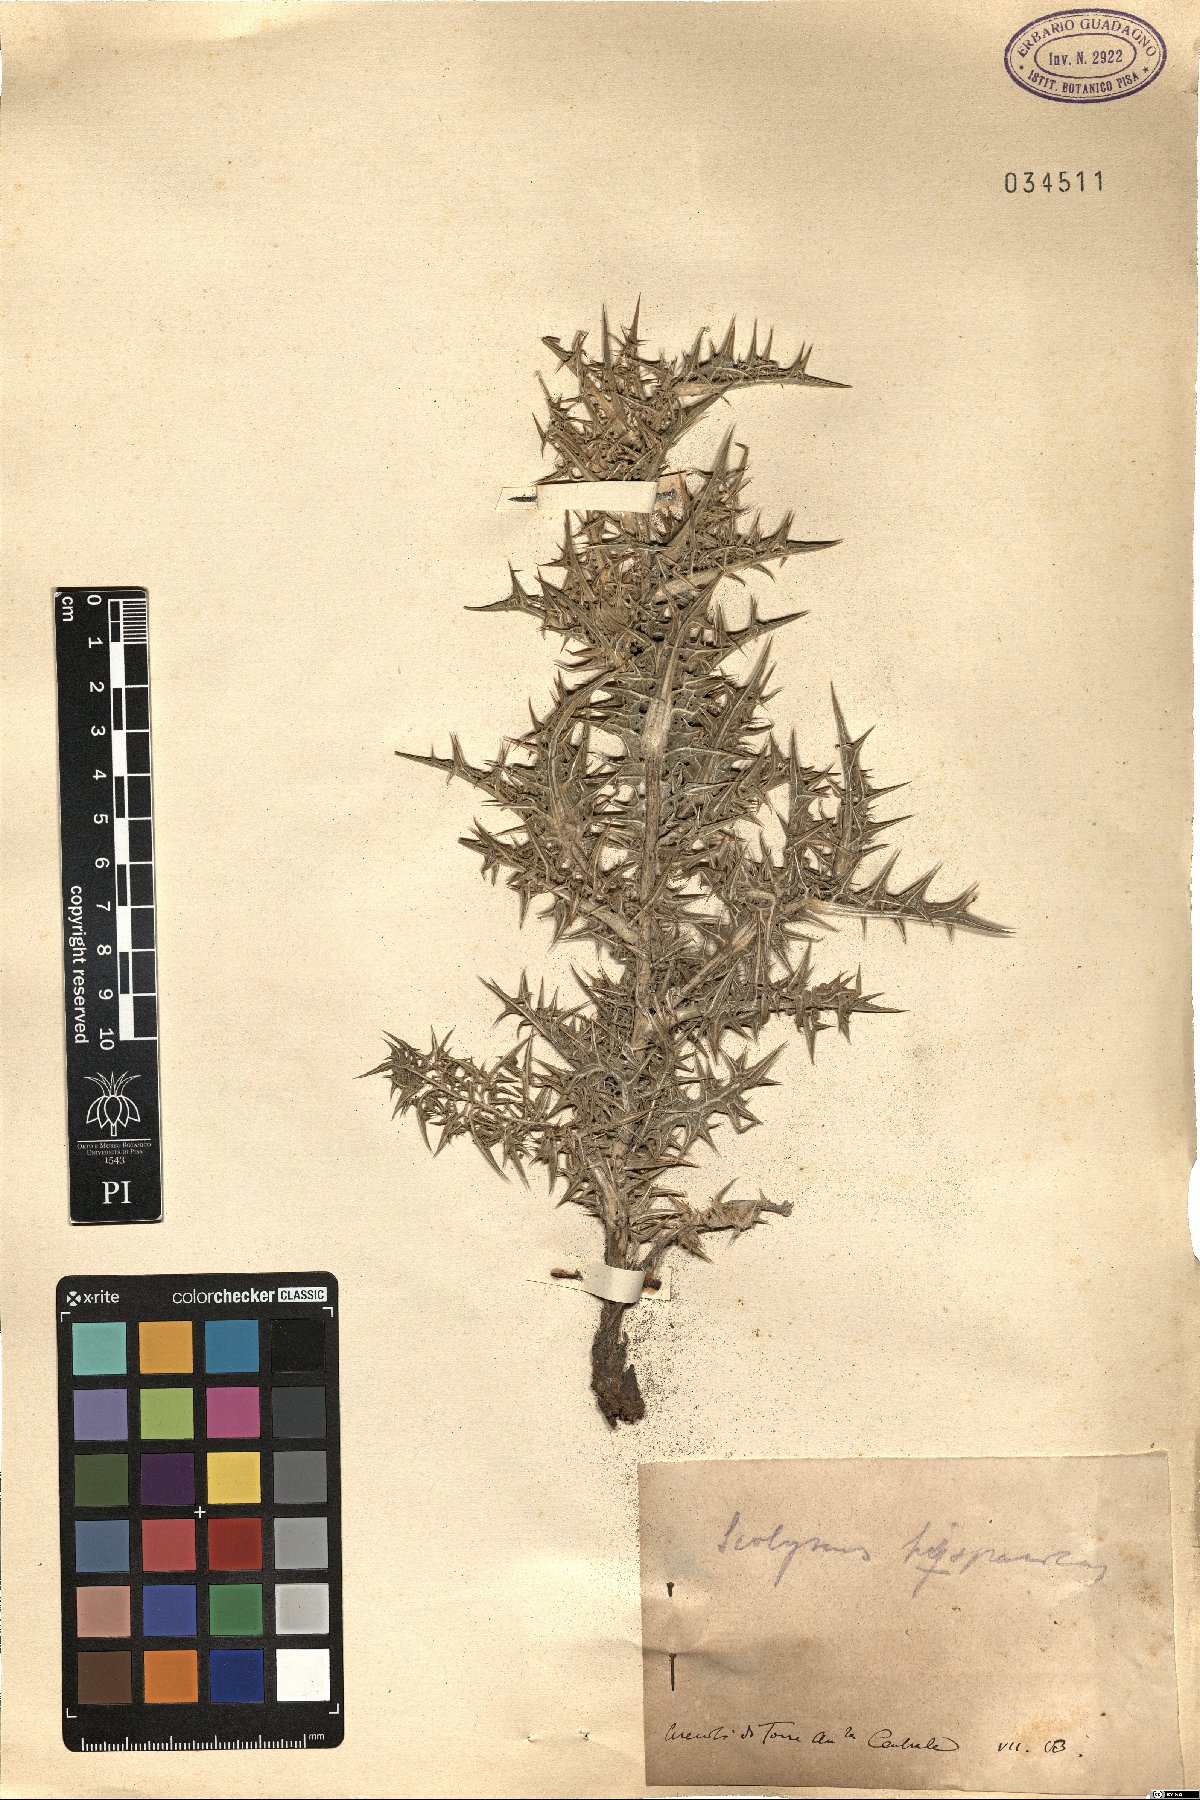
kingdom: Plantae
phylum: Tracheophyta
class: Magnoliopsida
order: Asterales
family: Asteraceae
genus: Scolymus
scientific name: Scolymus hispanicus
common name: Golden thistle
